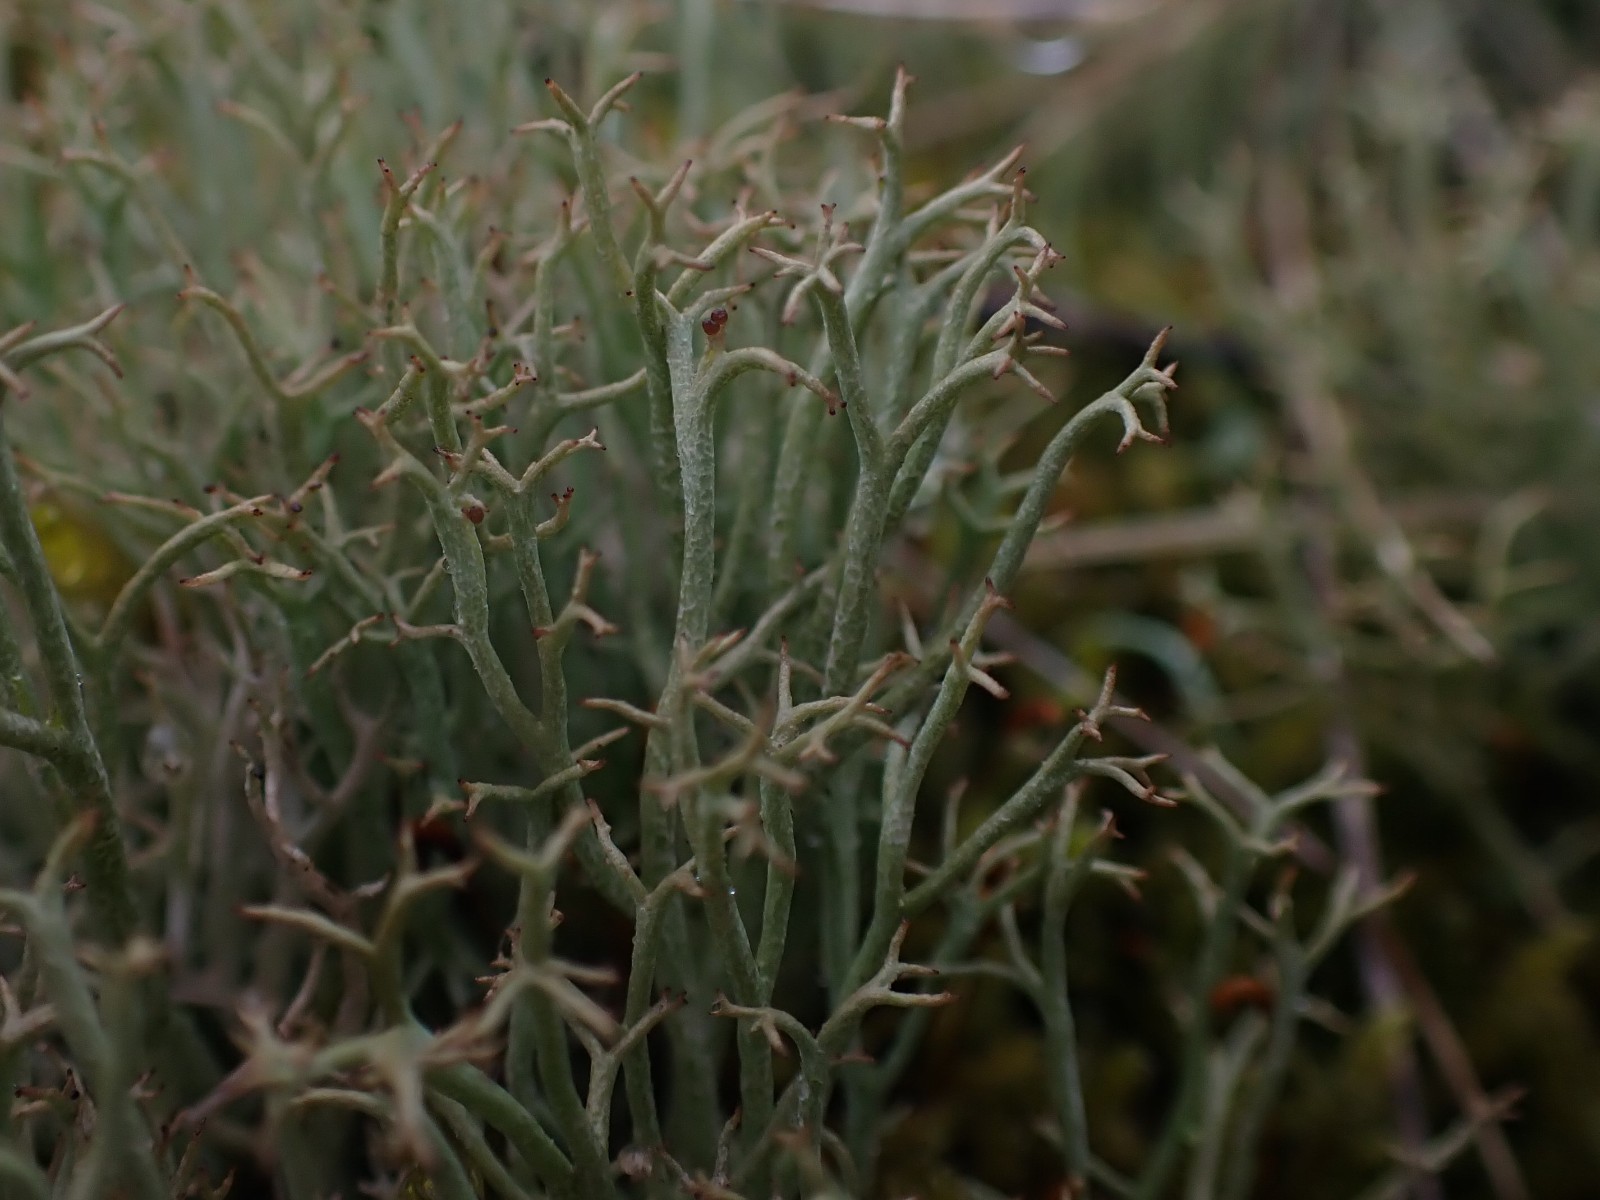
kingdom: Fungi
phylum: Ascomycota
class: Lecanoromycetes
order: Lecanorales
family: Cladoniaceae
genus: Cladonia
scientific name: Cladonia furcata
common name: kløftet bægerlav
